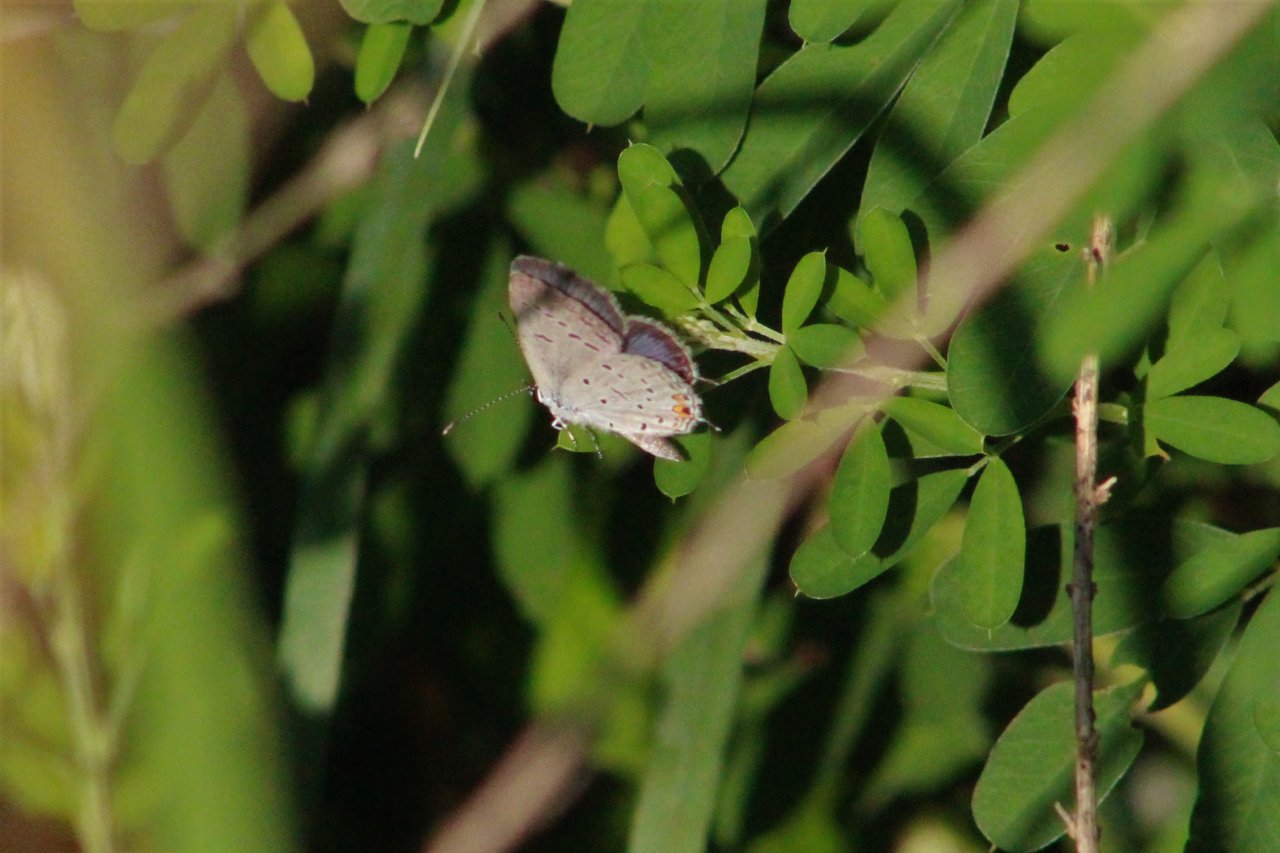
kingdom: Animalia
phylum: Arthropoda
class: Insecta
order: Lepidoptera
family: Lycaenidae
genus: Elkalyce
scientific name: Elkalyce comyntas
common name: Eastern Tailed-Blue
